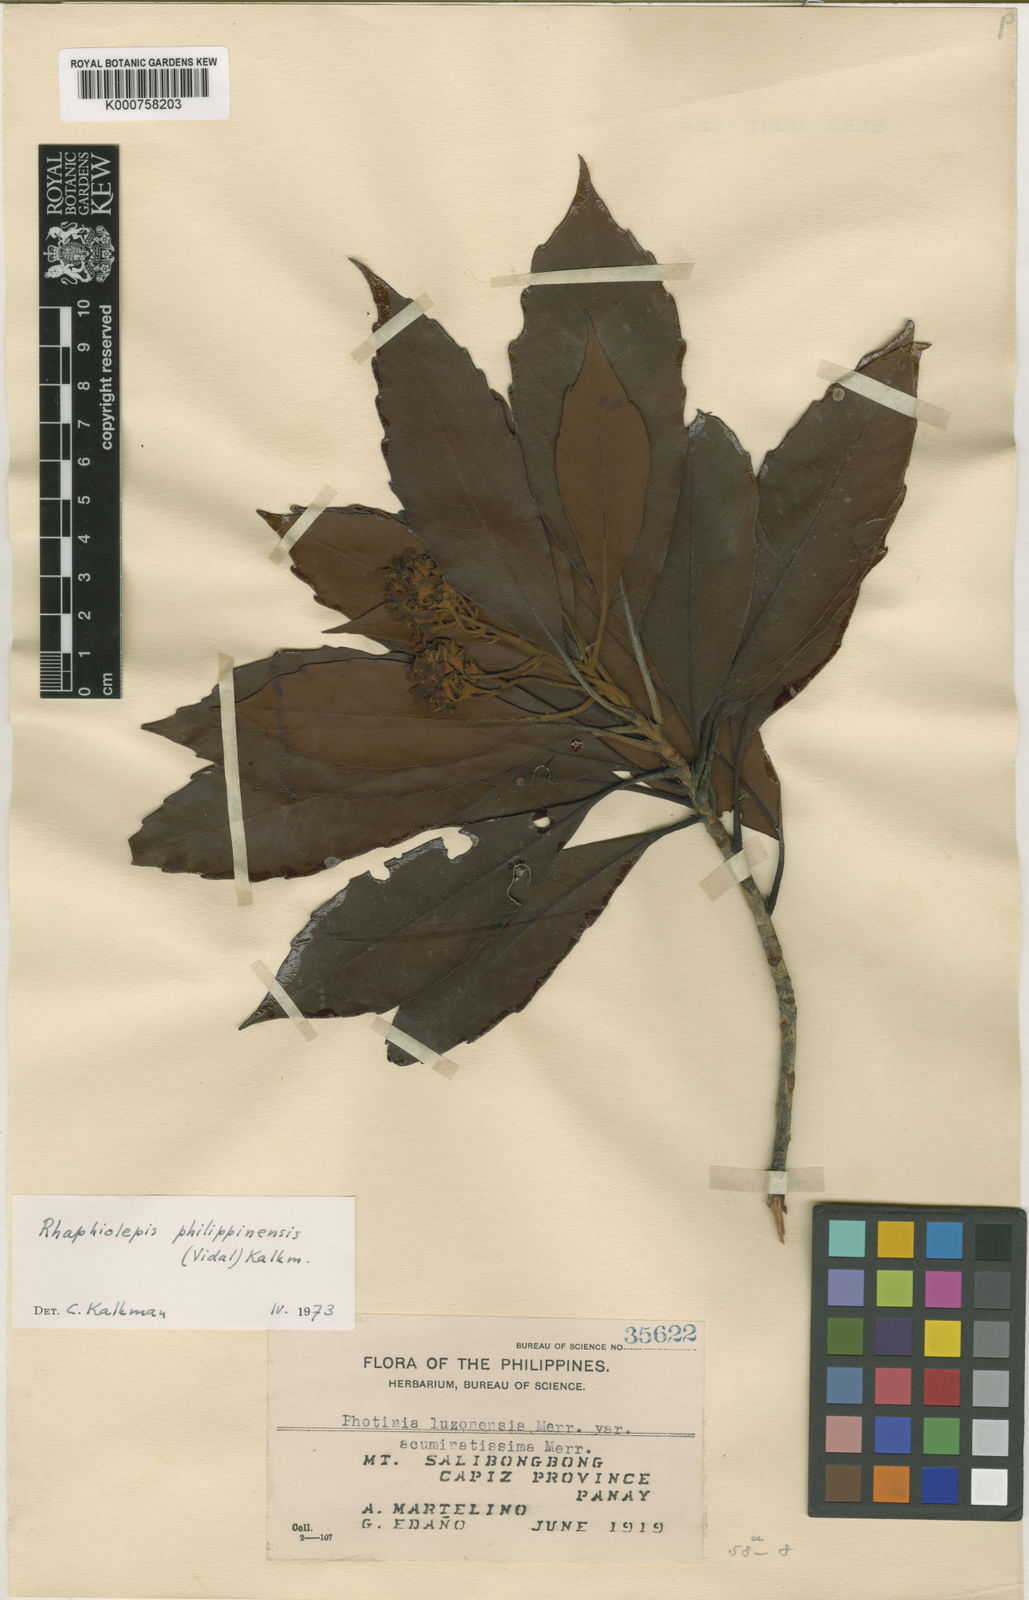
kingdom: Plantae
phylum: Tracheophyta
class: Magnoliopsida
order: Rosales
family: Rosaceae
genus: Rhaphiolepis
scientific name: Rhaphiolepis philippinensis
